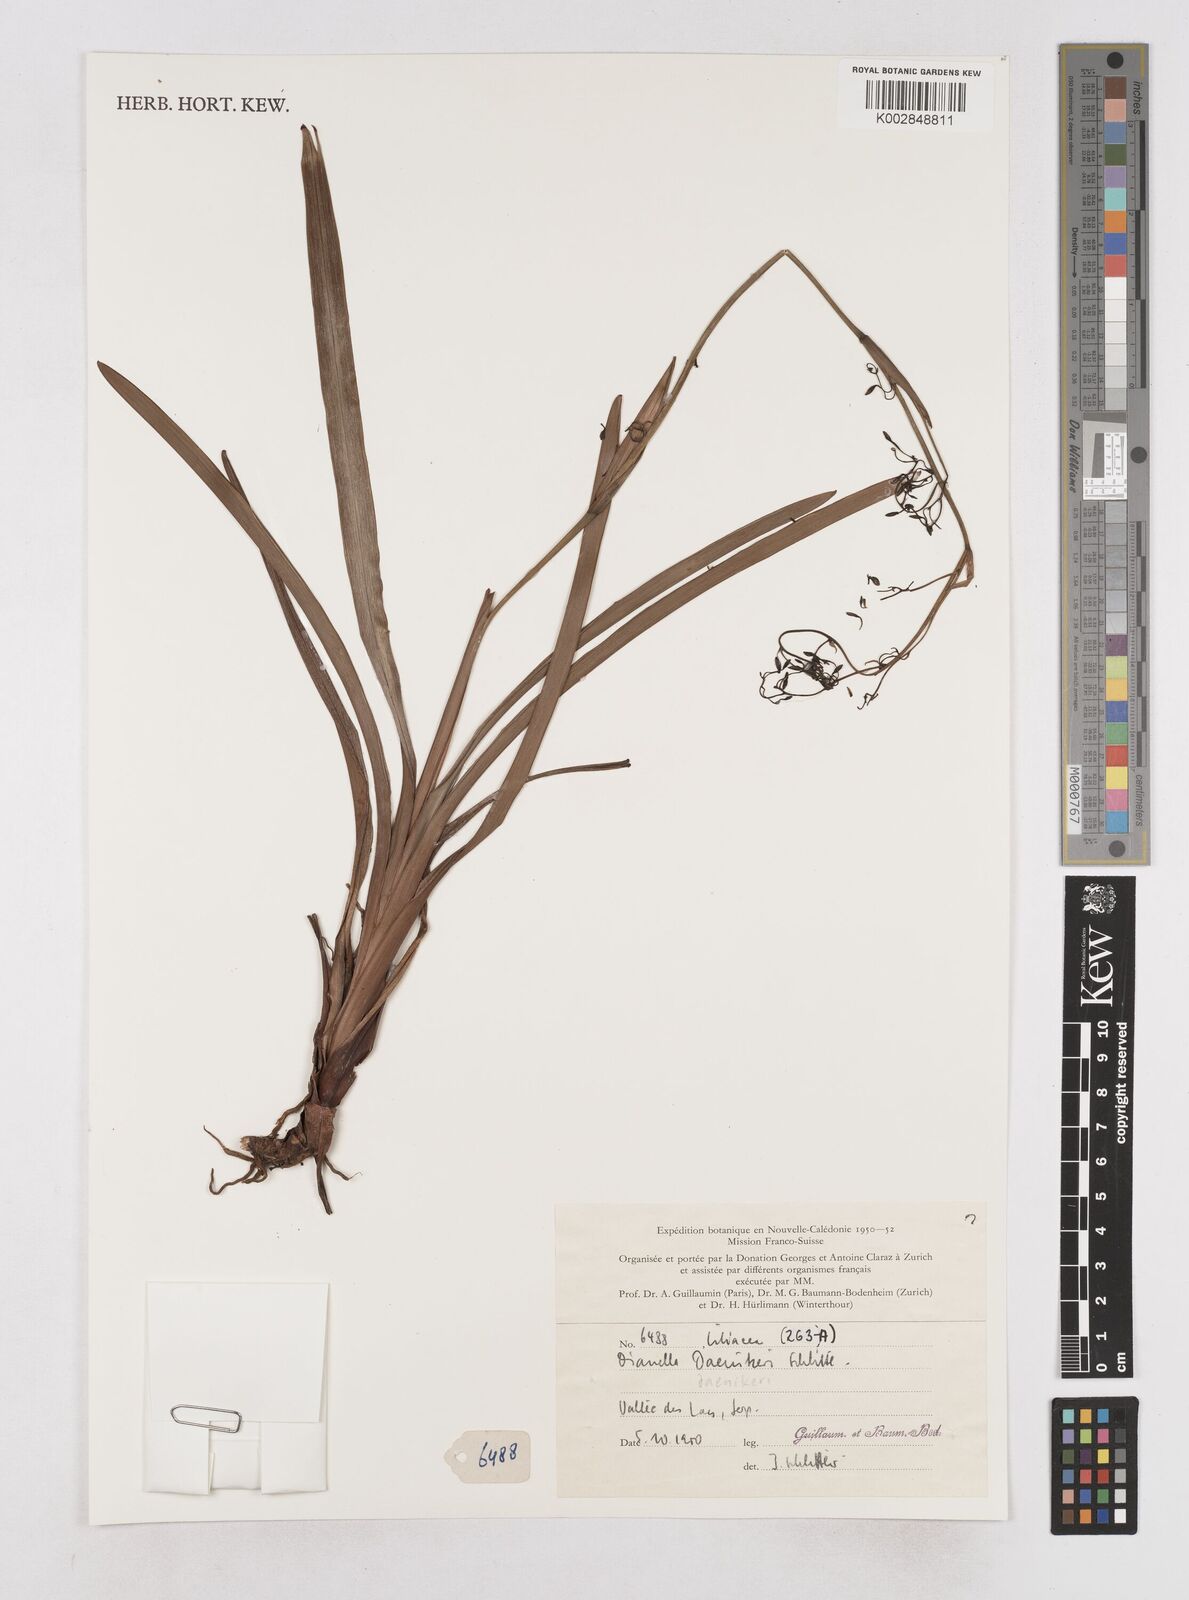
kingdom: Plantae
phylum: Tracheophyta
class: Liliopsida
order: Asparagales
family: Asphodelaceae
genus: Dianella
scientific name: Dianella daenikeri
